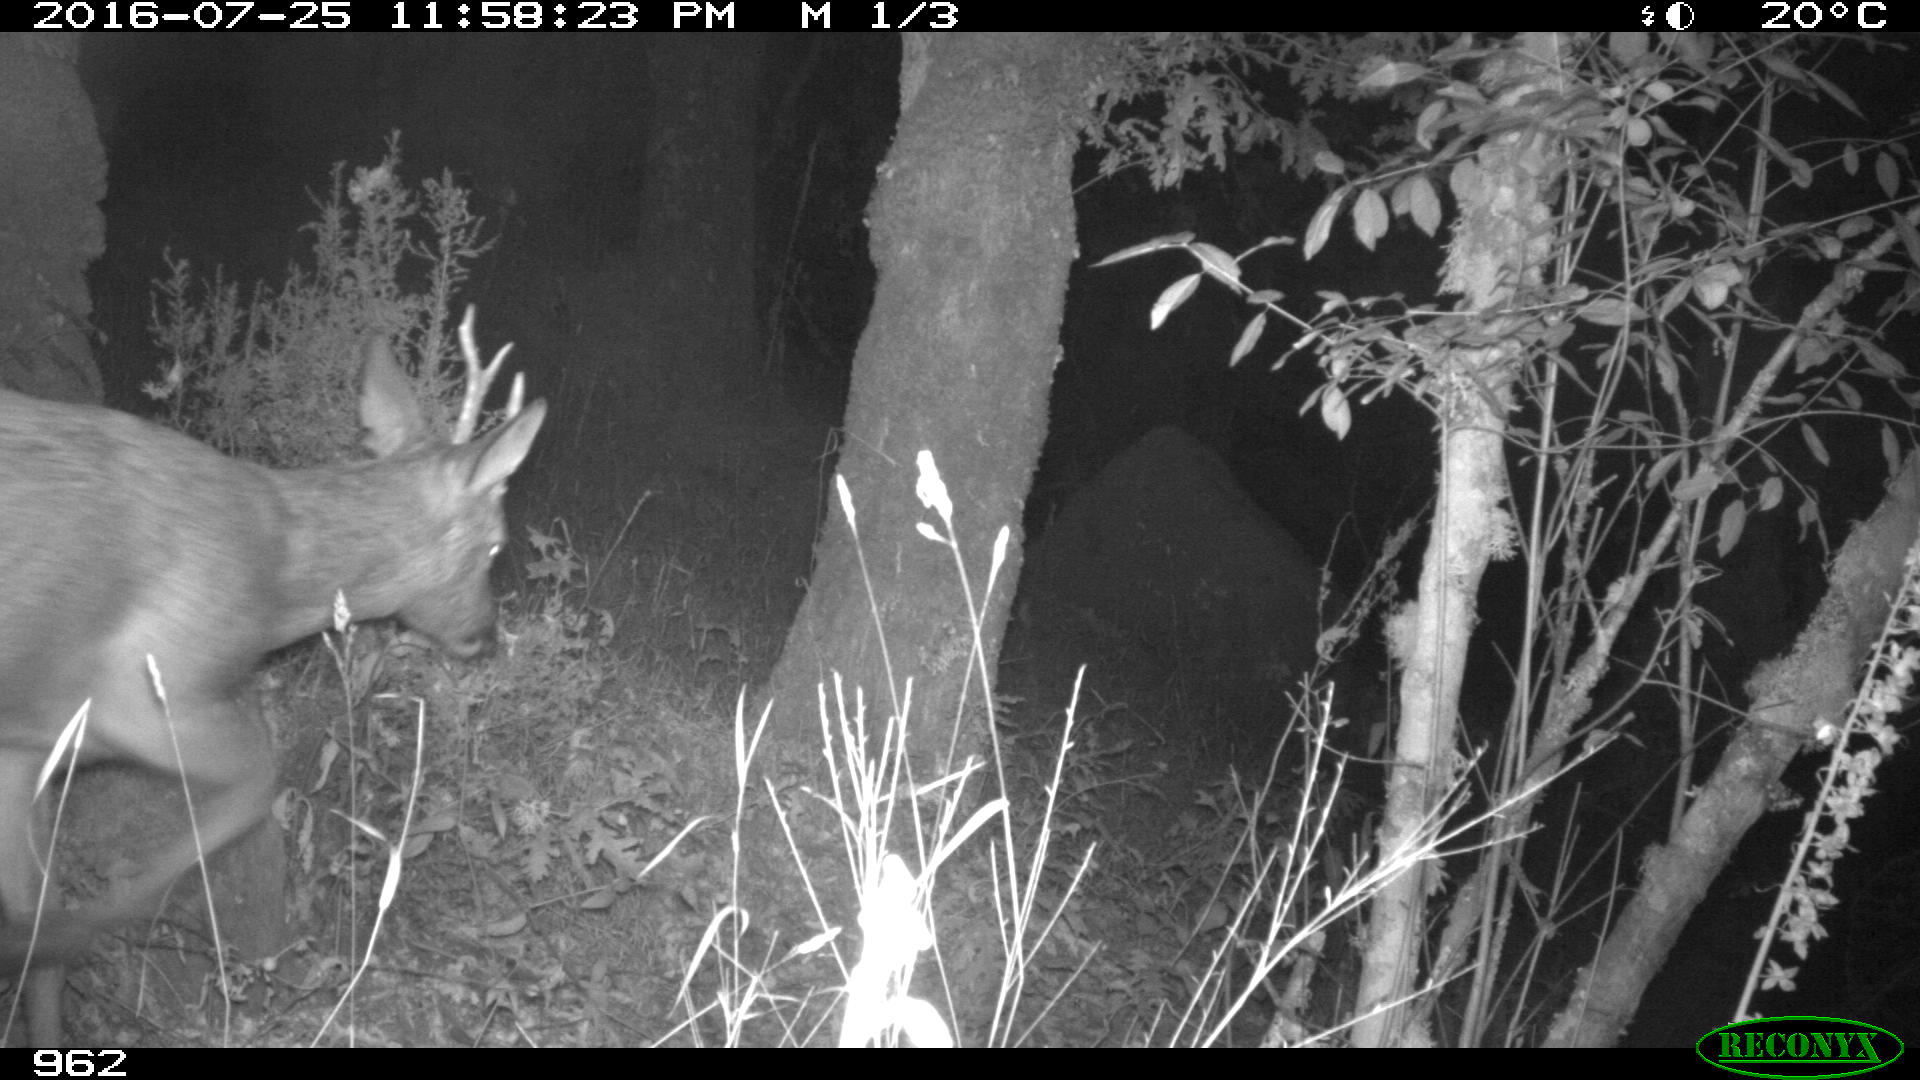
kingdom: Animalia
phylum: Chordata
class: Mammalia
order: Artiodactyla
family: Cervidae
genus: Capreolus
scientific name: Capreolus capreolus
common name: Western roe deer
